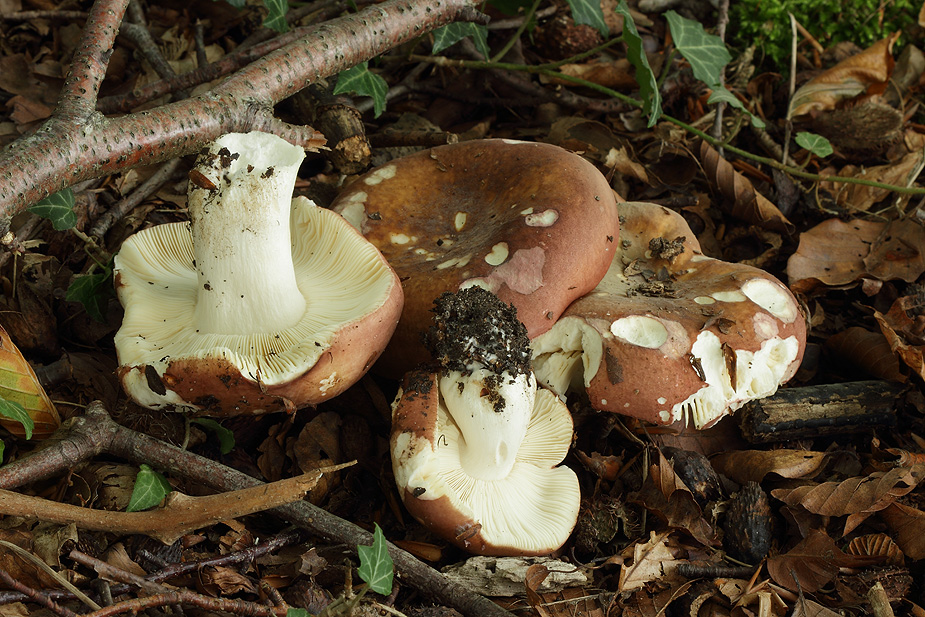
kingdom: Fungi
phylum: Basidiomycota
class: Agaricomycetes
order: Russulales
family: Russulaceae
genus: Russula
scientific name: Russula sericatula
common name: brunrød skørhat
